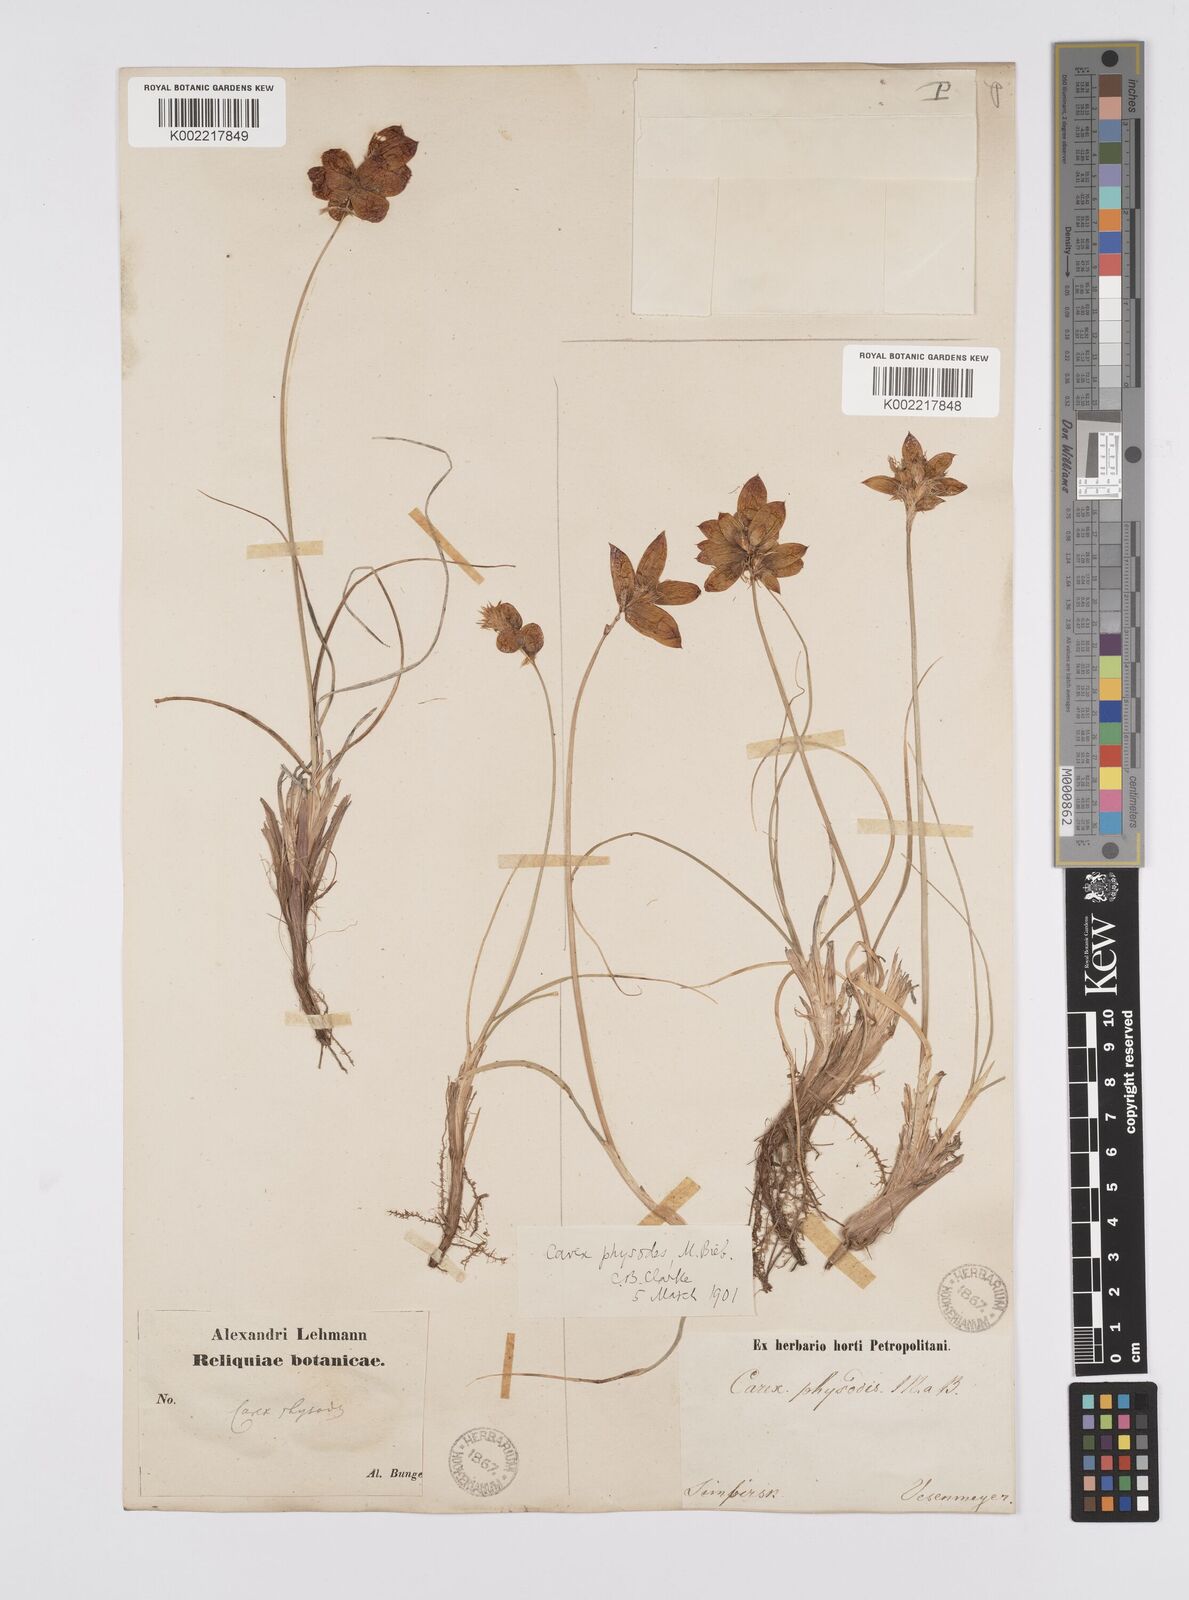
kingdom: Plantae
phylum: Tracheophyta
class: Liliopsida
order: Poales
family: Cyperaceae
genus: Carex
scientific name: Carex physodes
